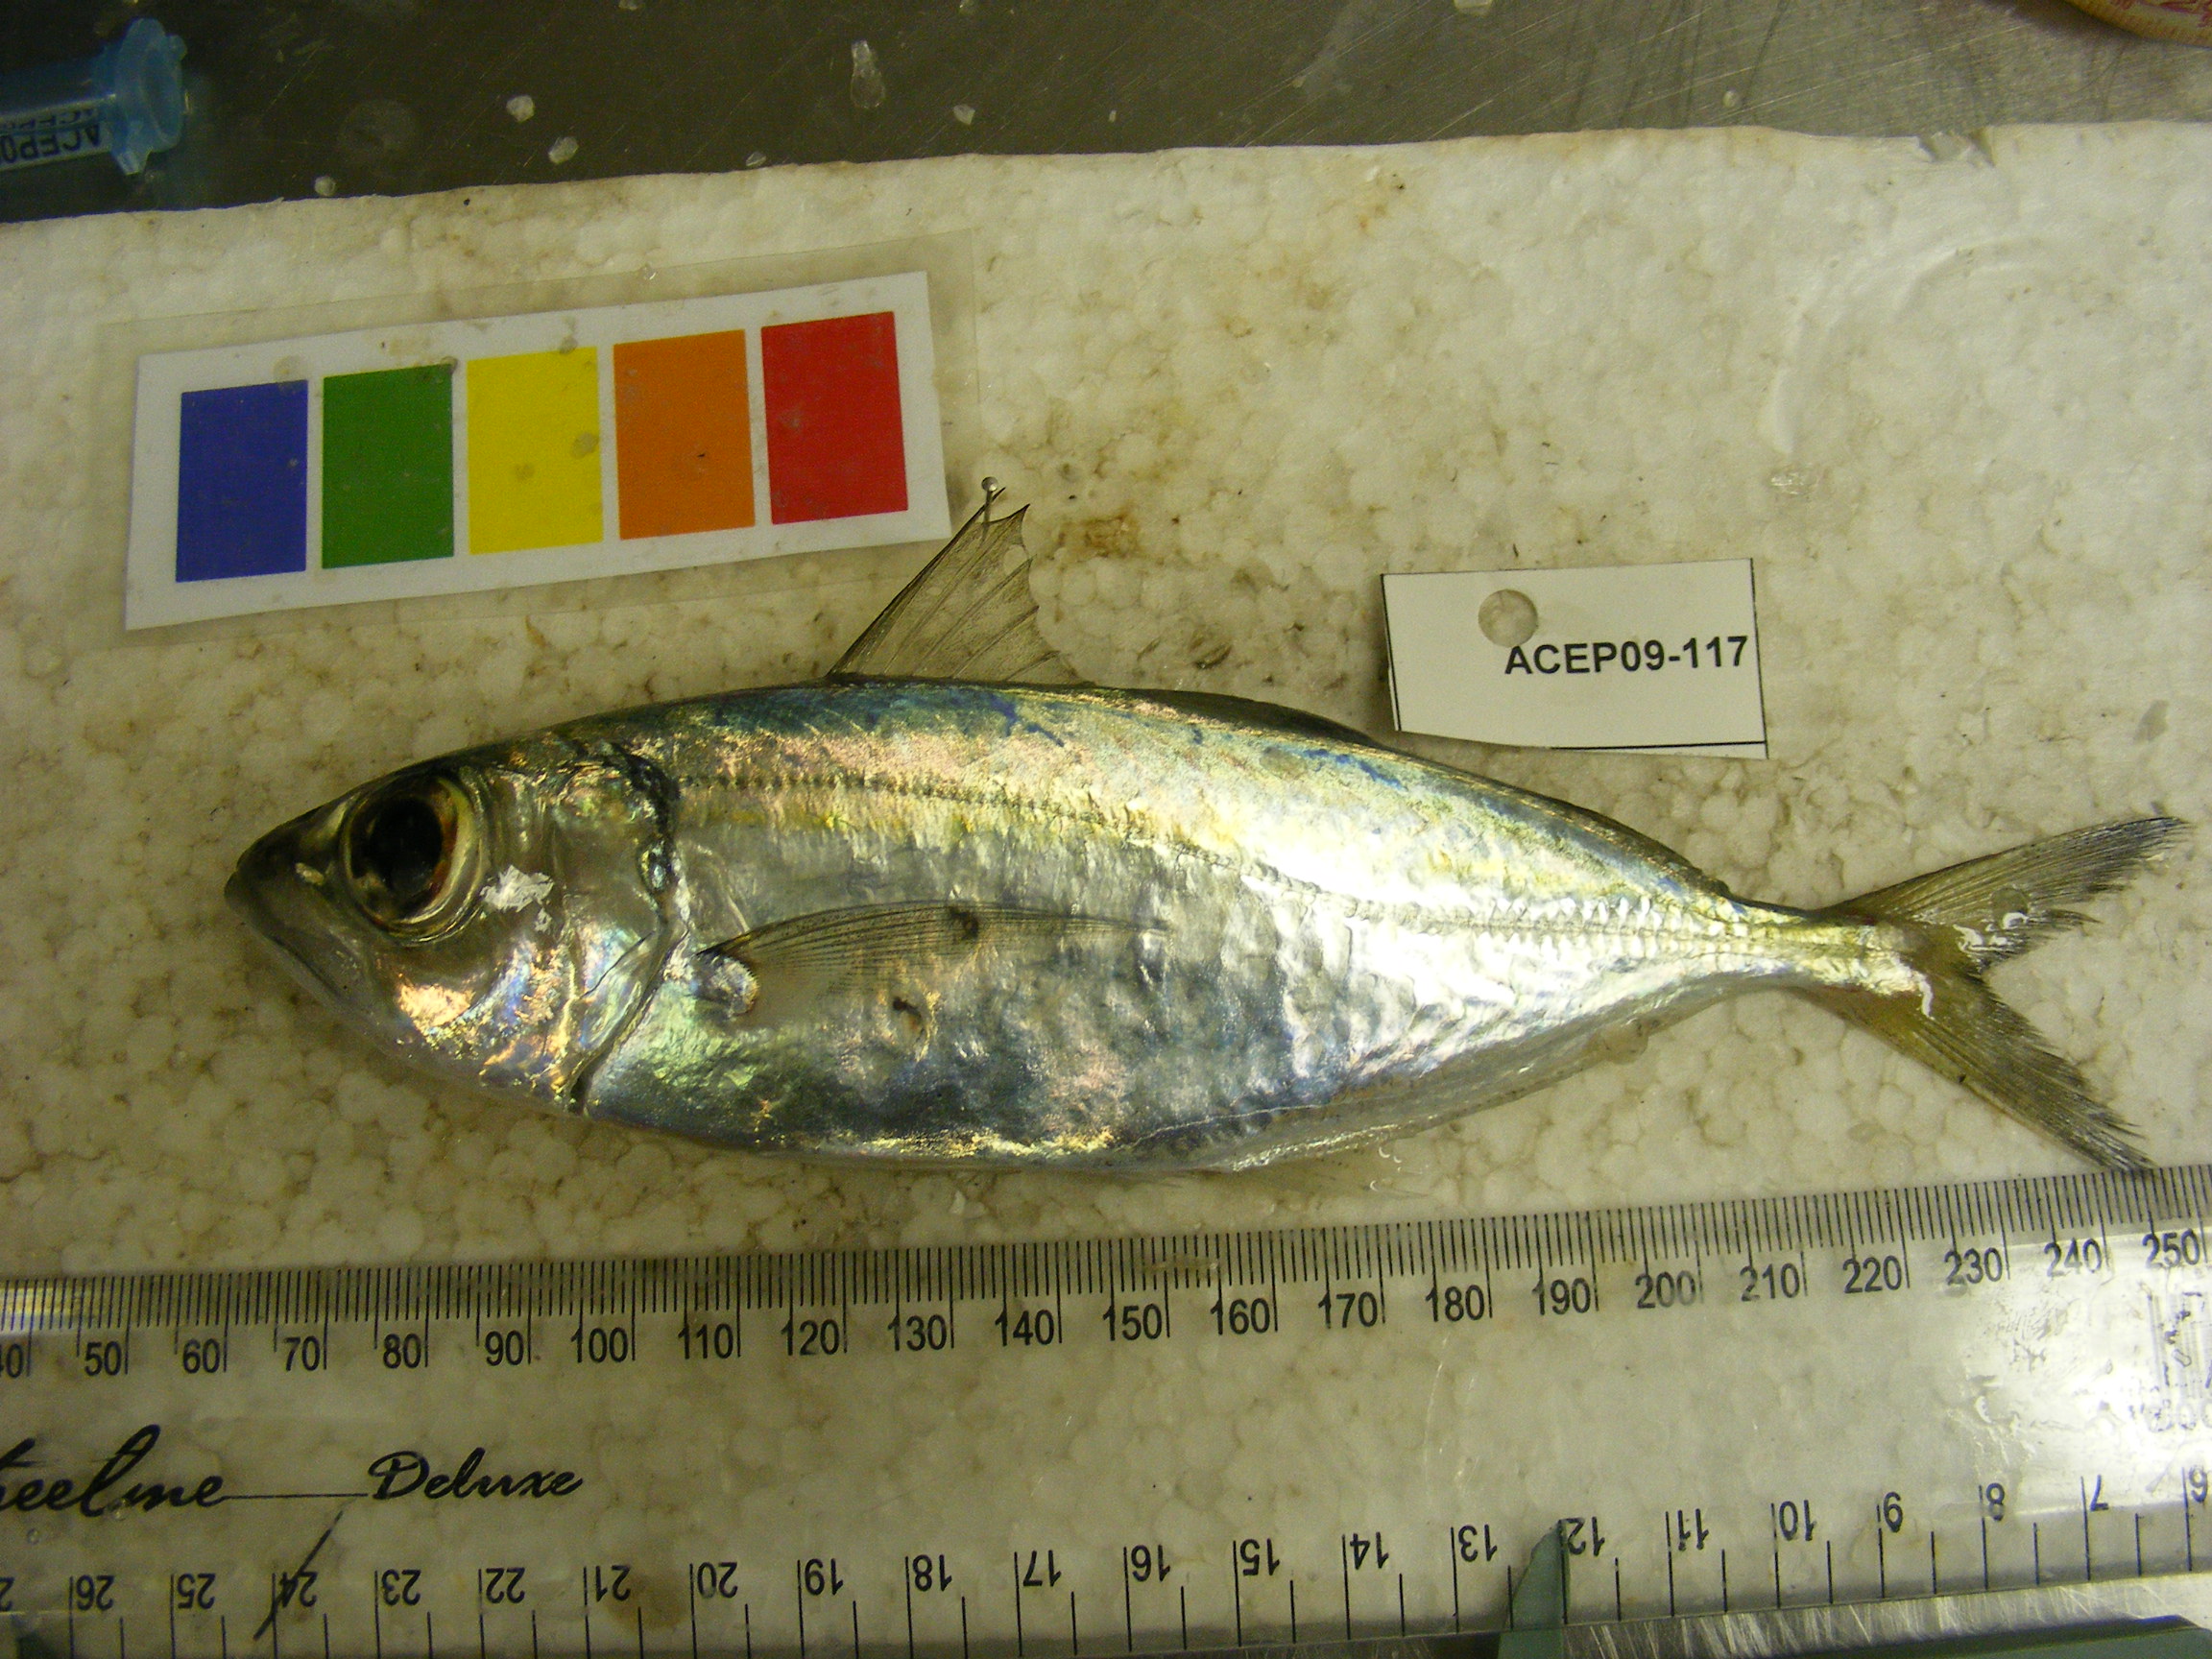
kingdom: Animalia
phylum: Chordata
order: Perciformes
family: Carangidae
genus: Decapterus
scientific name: Decapterus
